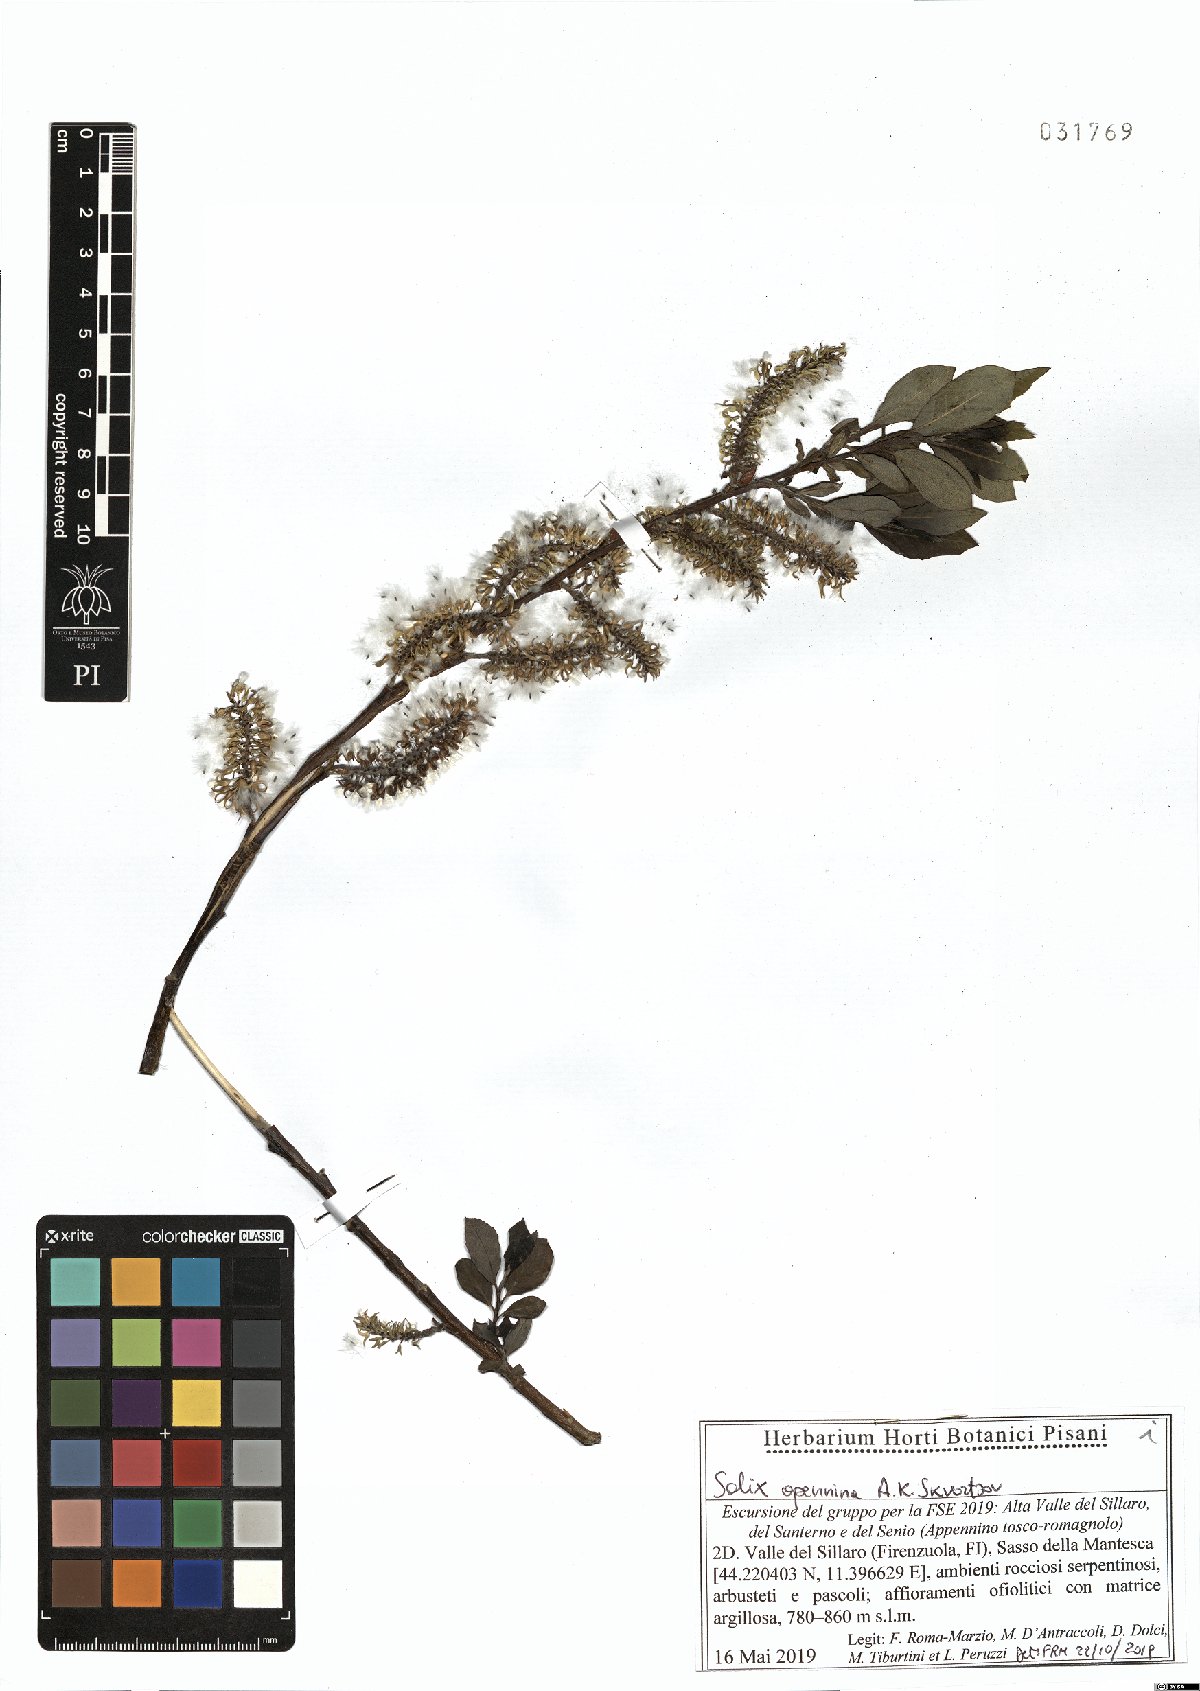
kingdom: Plantae
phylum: Tracheophyta
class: Magnoliopsida
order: Malpighiales
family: Salicaceae
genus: Salix
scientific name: Salix apennina
